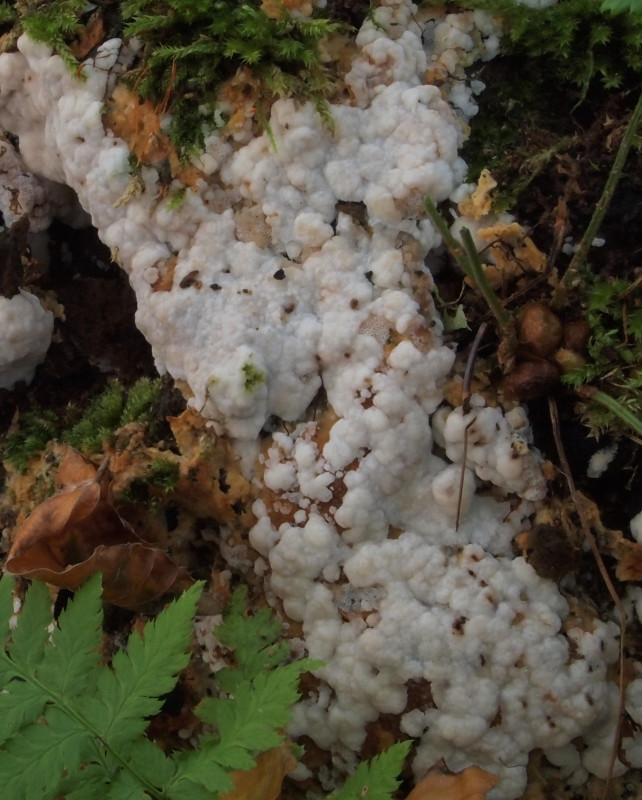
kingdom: Fungi
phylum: Basidiomycota
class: Agaricomycetes
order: Polyporales
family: Meripilaceae
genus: Rigidoporus
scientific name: Rigidoporus sanguinolentus
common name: blod-skorpeporesvamp
